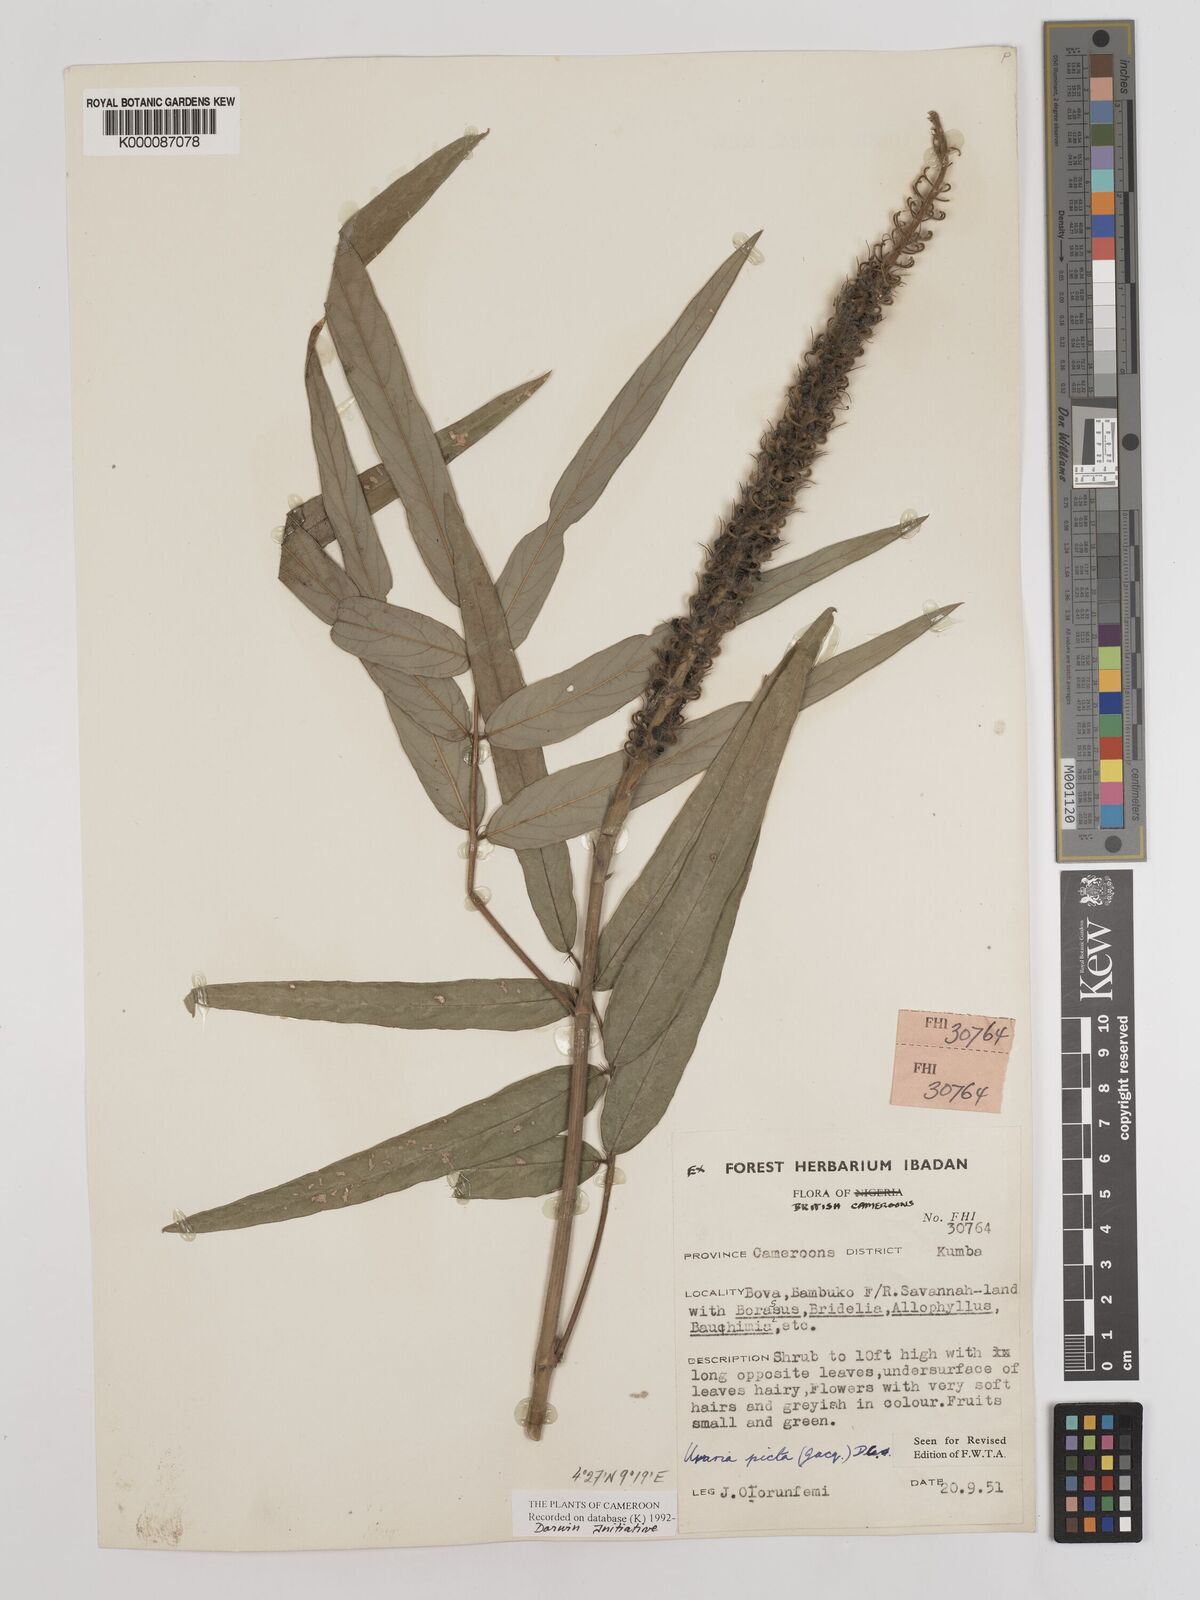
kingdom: Plantae
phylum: Tracheophyta
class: Magnoliopsida
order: Fabales
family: Fabaceae
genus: Uraria
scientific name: Uraria picta
